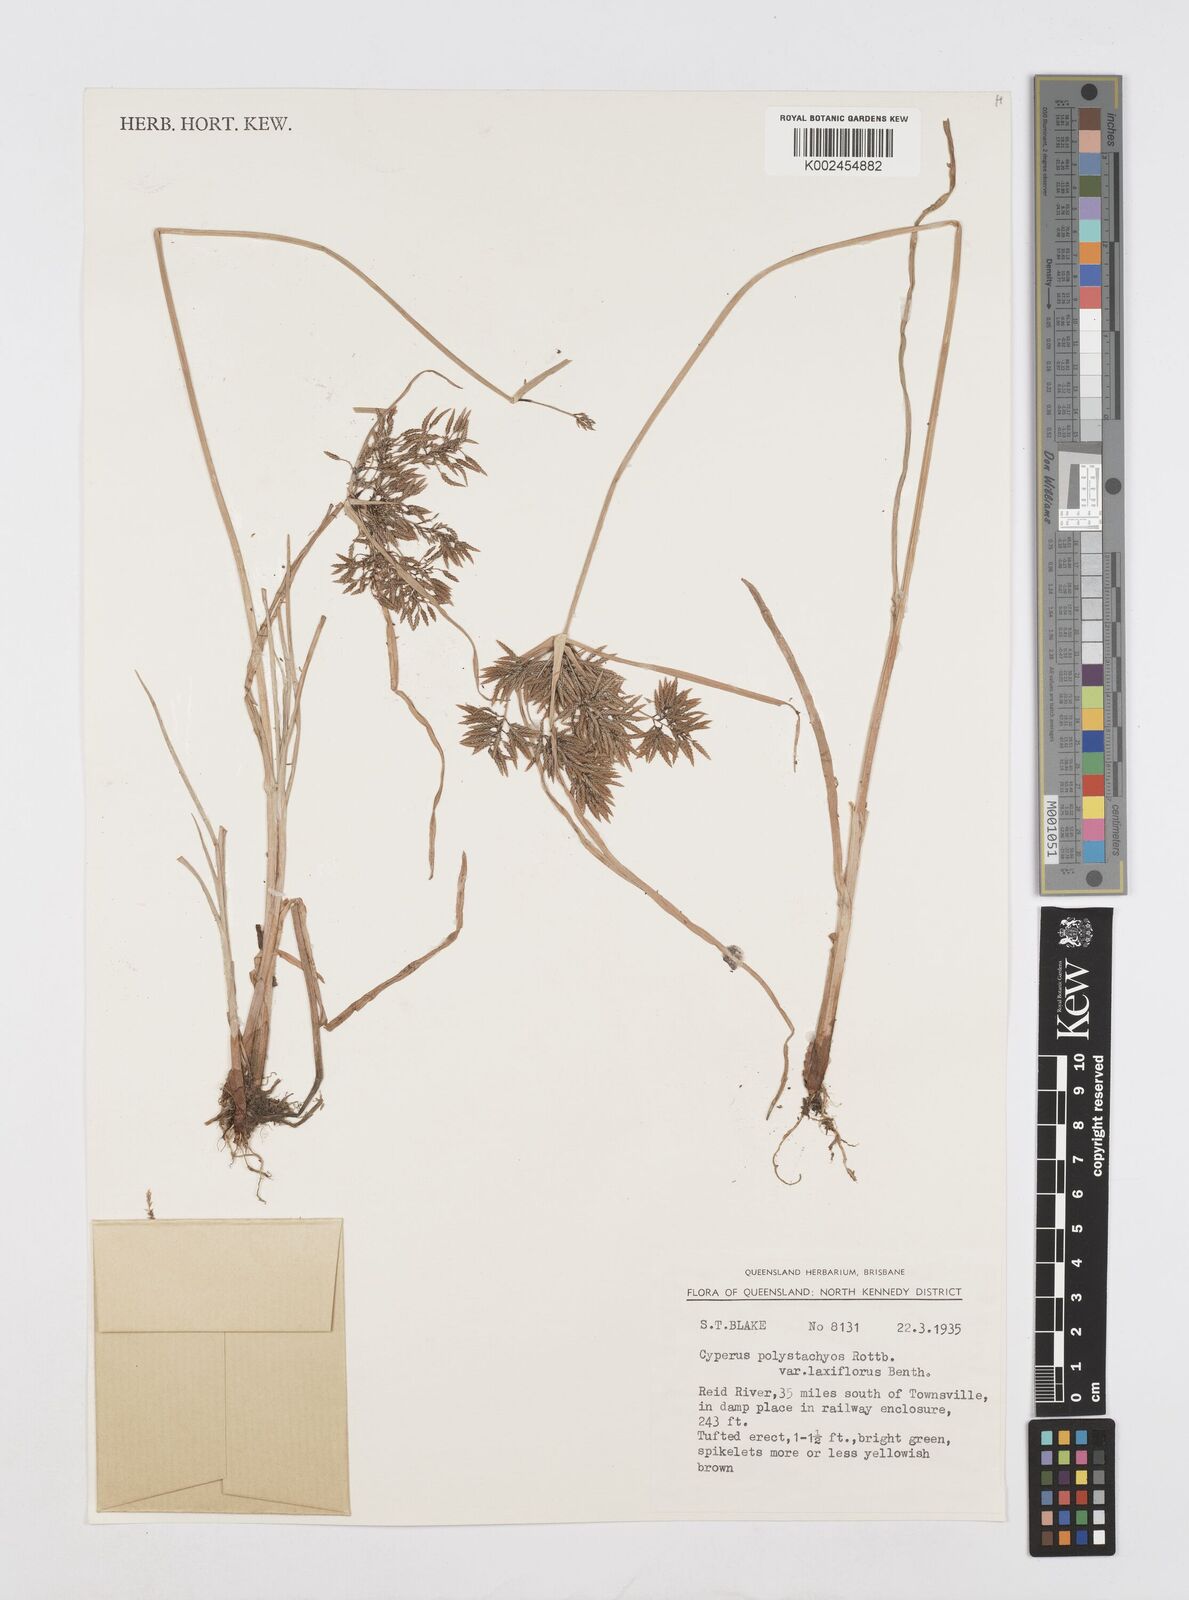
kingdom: Plantae
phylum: Tracheophyta
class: Liliopsida
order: Poales
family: Cyperaceae
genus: Cyperus
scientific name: Cyperus polystachyos
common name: Bunchy flat sedge
